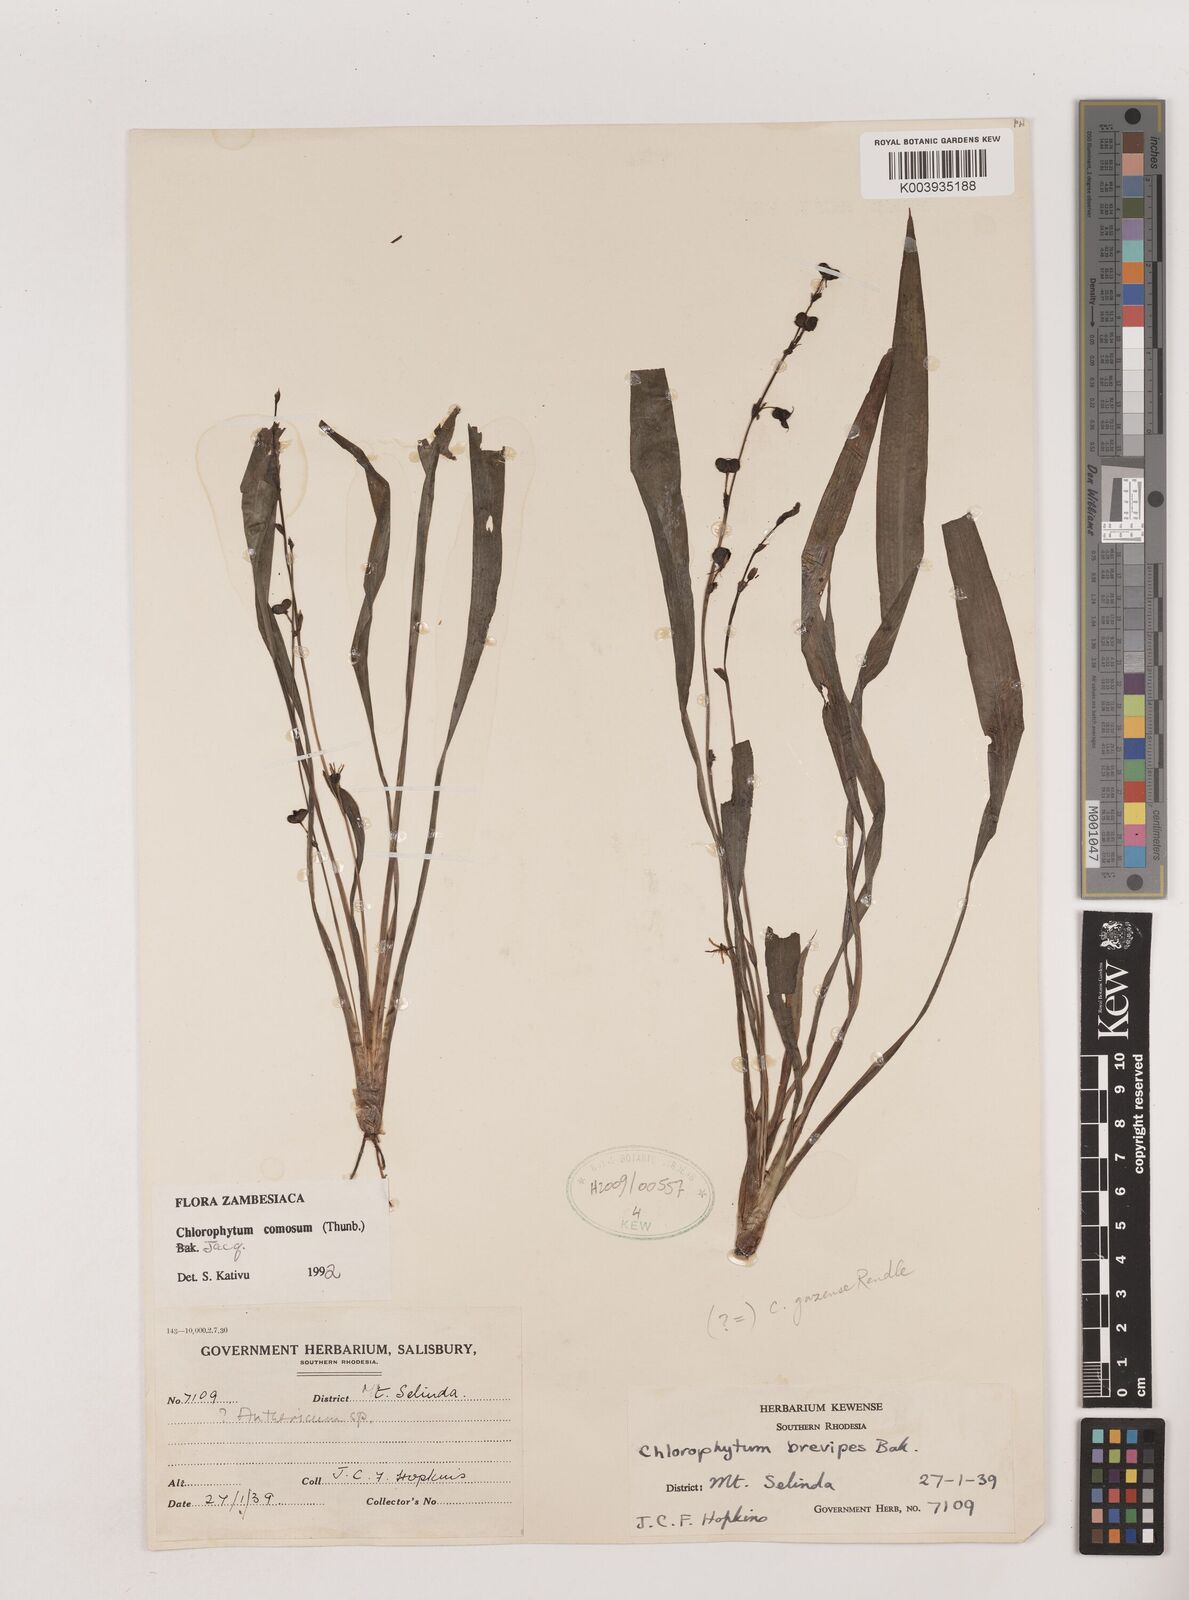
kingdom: Plantae
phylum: Tracheophyta
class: Liliopsida
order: Asparagales
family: Asparagaceae
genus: Chlorophytum
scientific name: Chlorophytum comosum
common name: Spider plant
